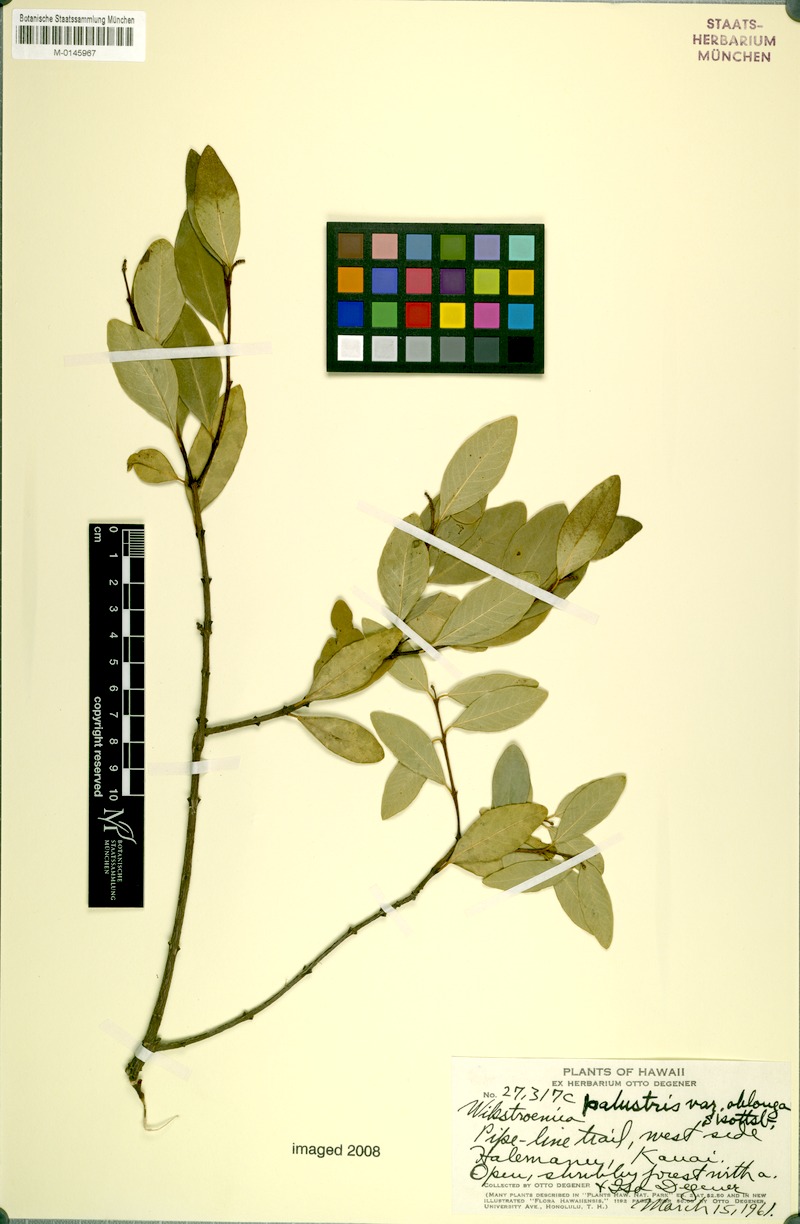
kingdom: Plantae
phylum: Tracheophyta
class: Magnoliopsida
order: Malvales
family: Thymelaeaceae
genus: Wikstroemia
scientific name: Wikstroemia oahuensis
